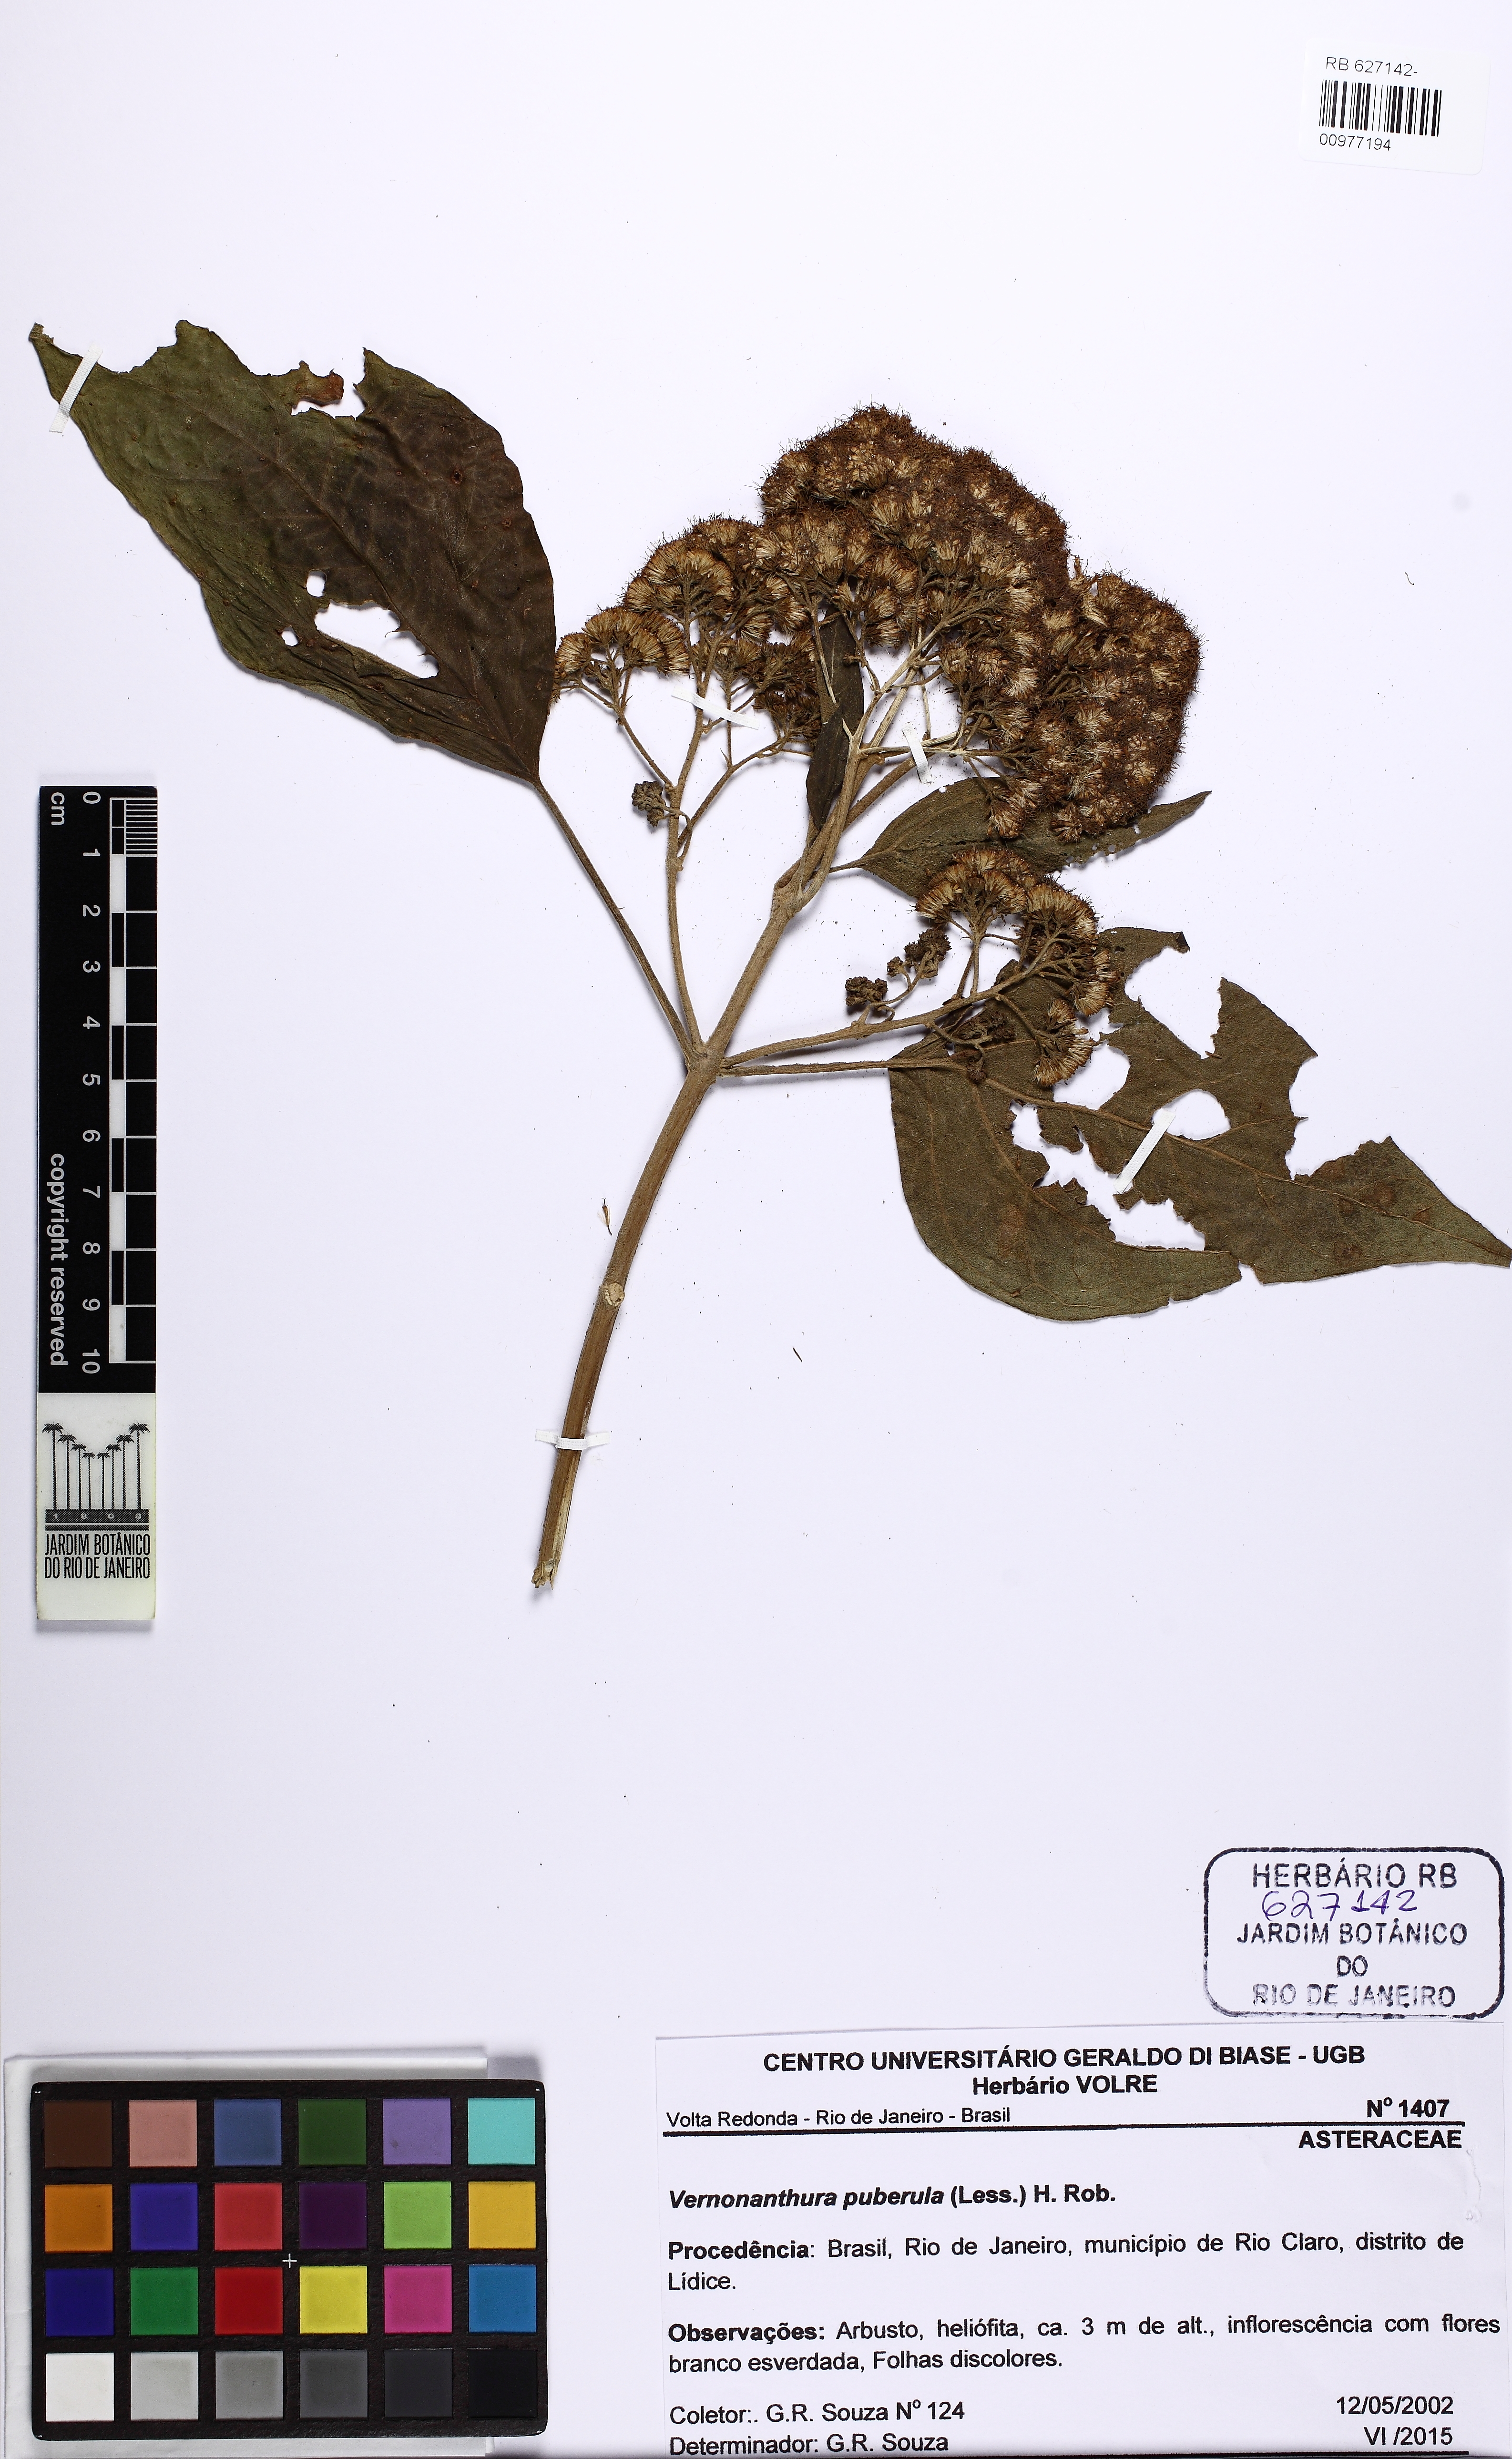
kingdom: Plantae
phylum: Tracheophyta
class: Magnoliopsida
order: Asterales
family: Asteraceae
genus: Vernonanthura
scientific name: Vernonanthura puberula
